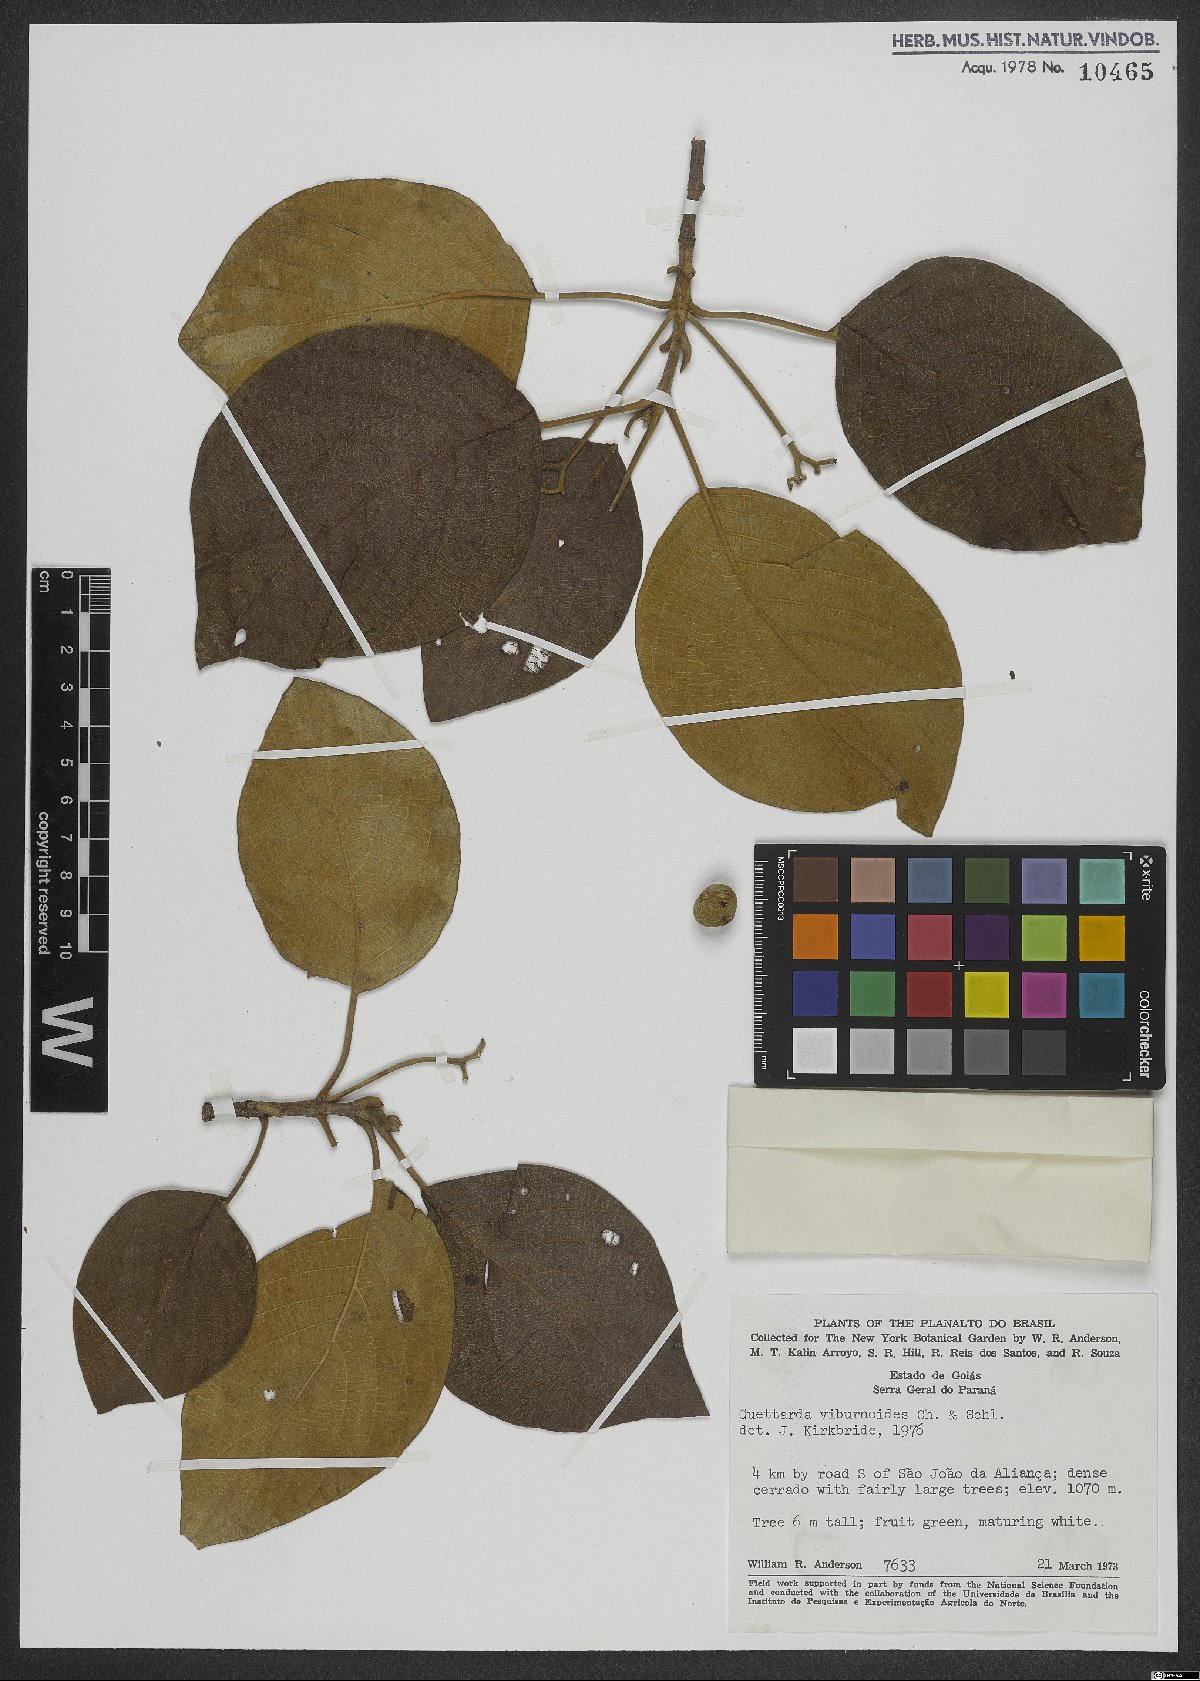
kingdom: Plantae
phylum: Tracheophyta
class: Magnoliopsida
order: Gentianales
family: Rubiaceae
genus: Guettarda
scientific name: Guettarda viburnoides
